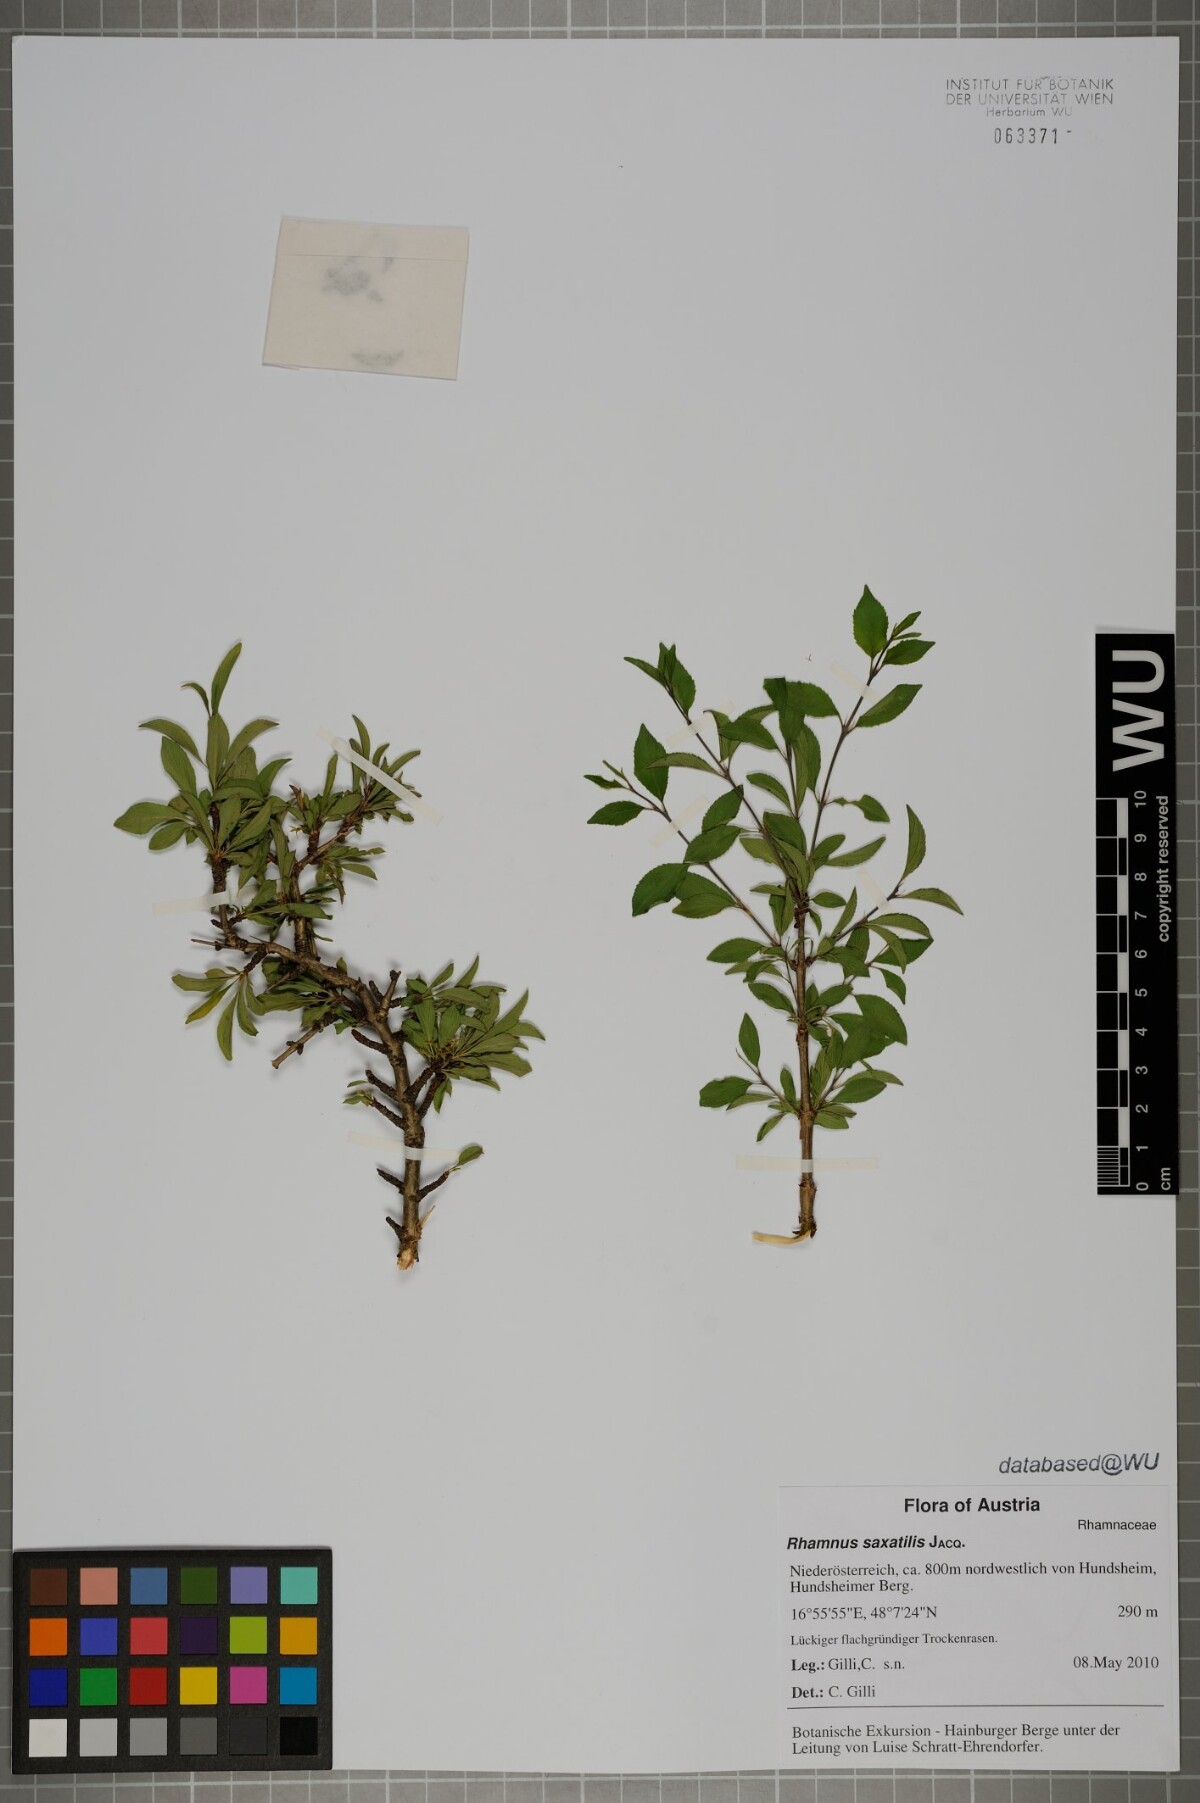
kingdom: Plantae
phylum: Tracheophyta
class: Magnoliopsida
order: Rosales
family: Rhamnaceae
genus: Rhamnus
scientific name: Rhamnus saxatilis
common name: Rock buckthorn
